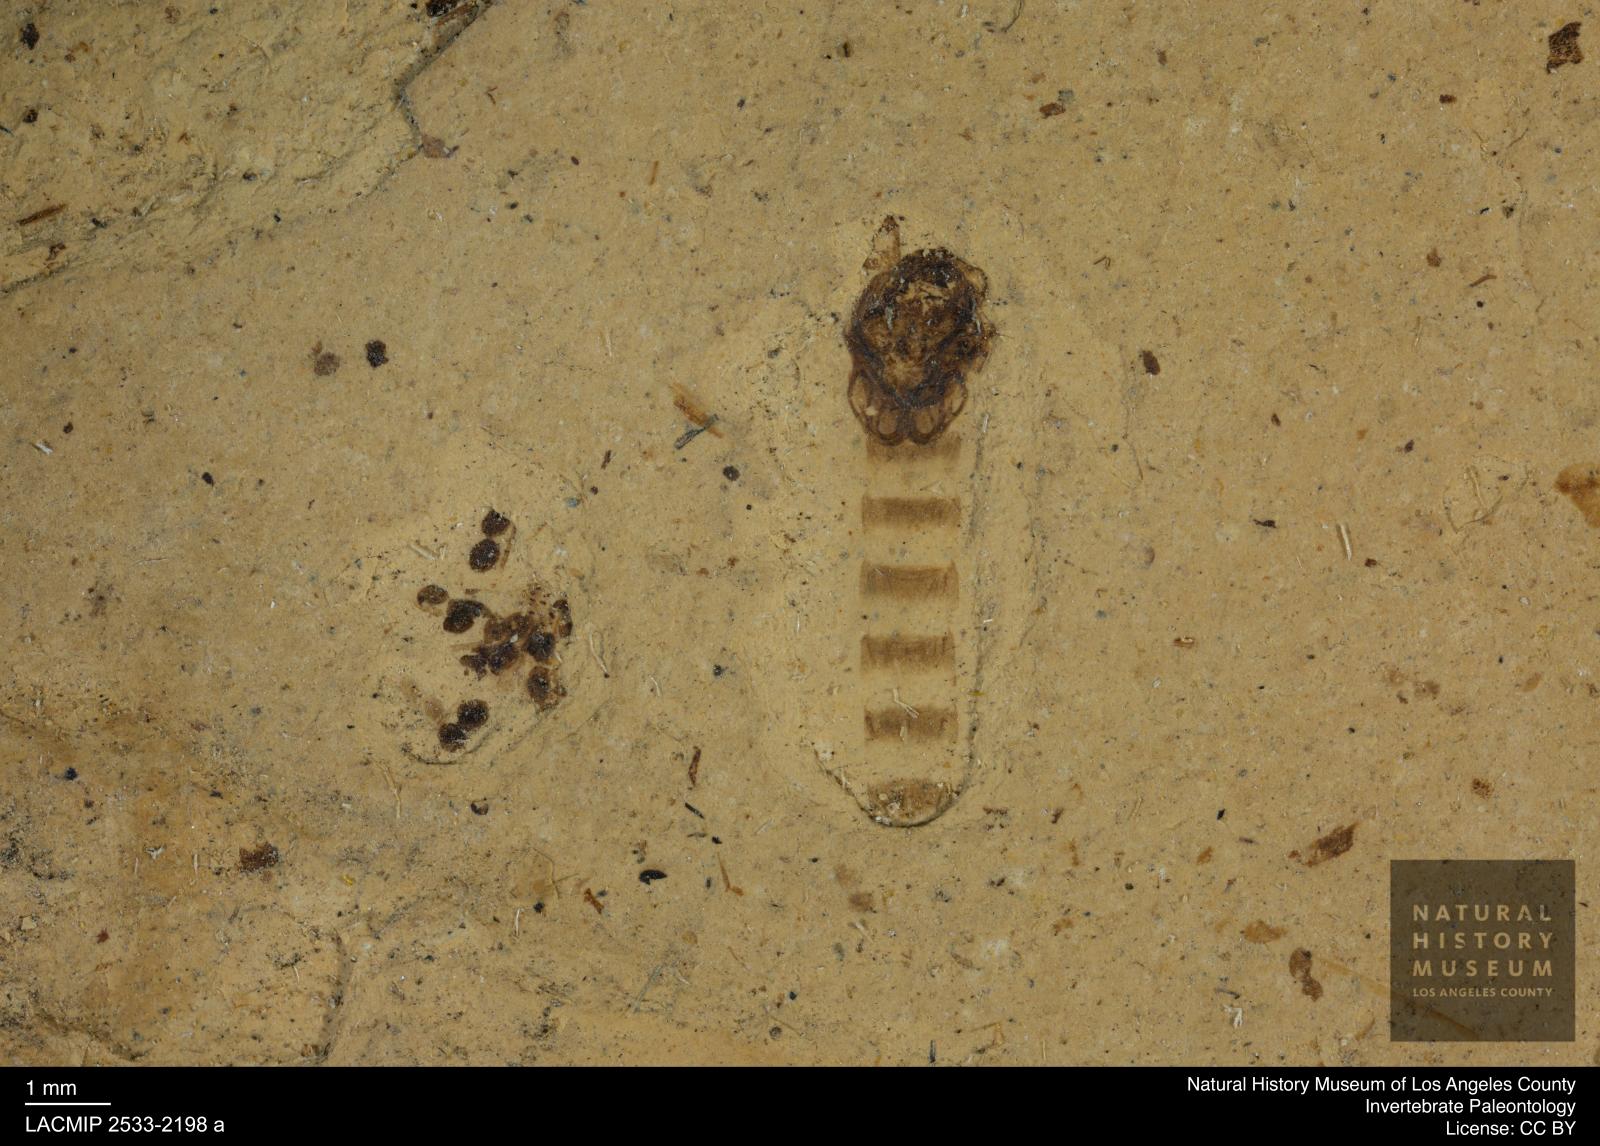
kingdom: Animalia
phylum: Arthropoda
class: Insecta
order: Diptera
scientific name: Diptera
